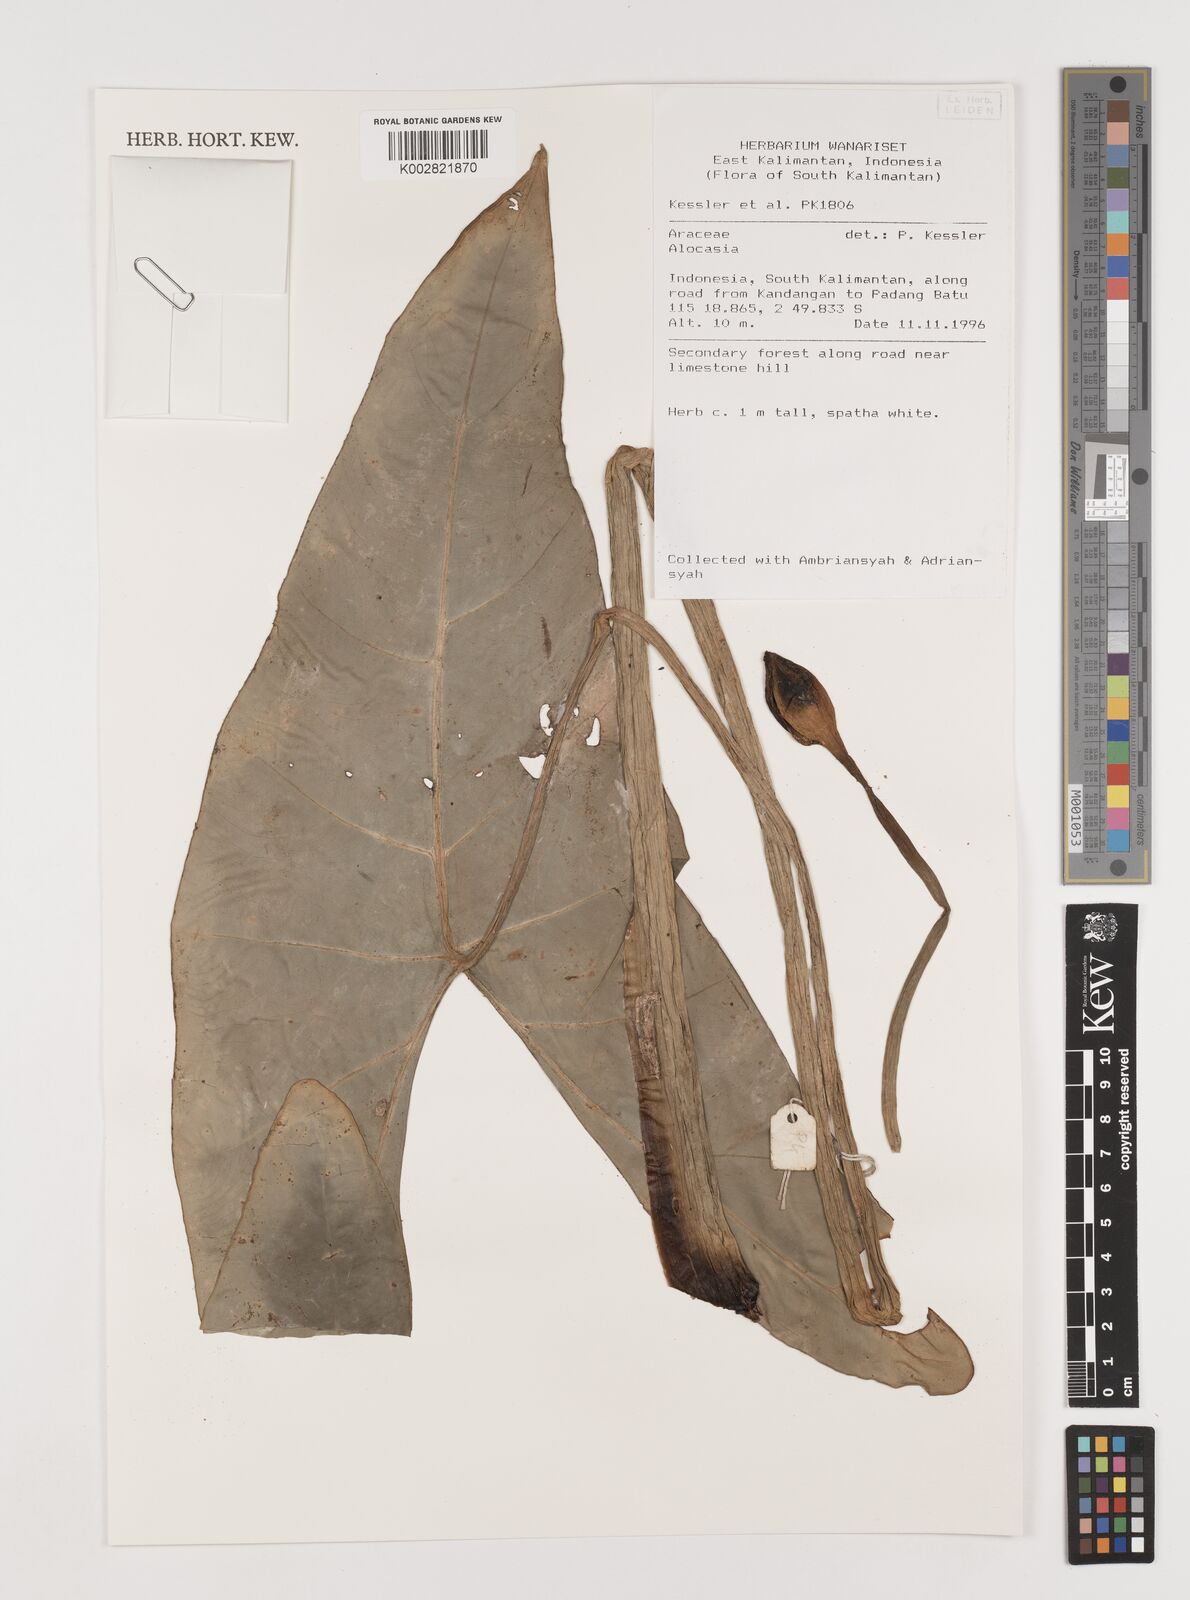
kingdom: Plantae
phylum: Tracheophyta
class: Liliopsida
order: Alismatales
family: Araceae
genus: Alocasia
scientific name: Alocasia
